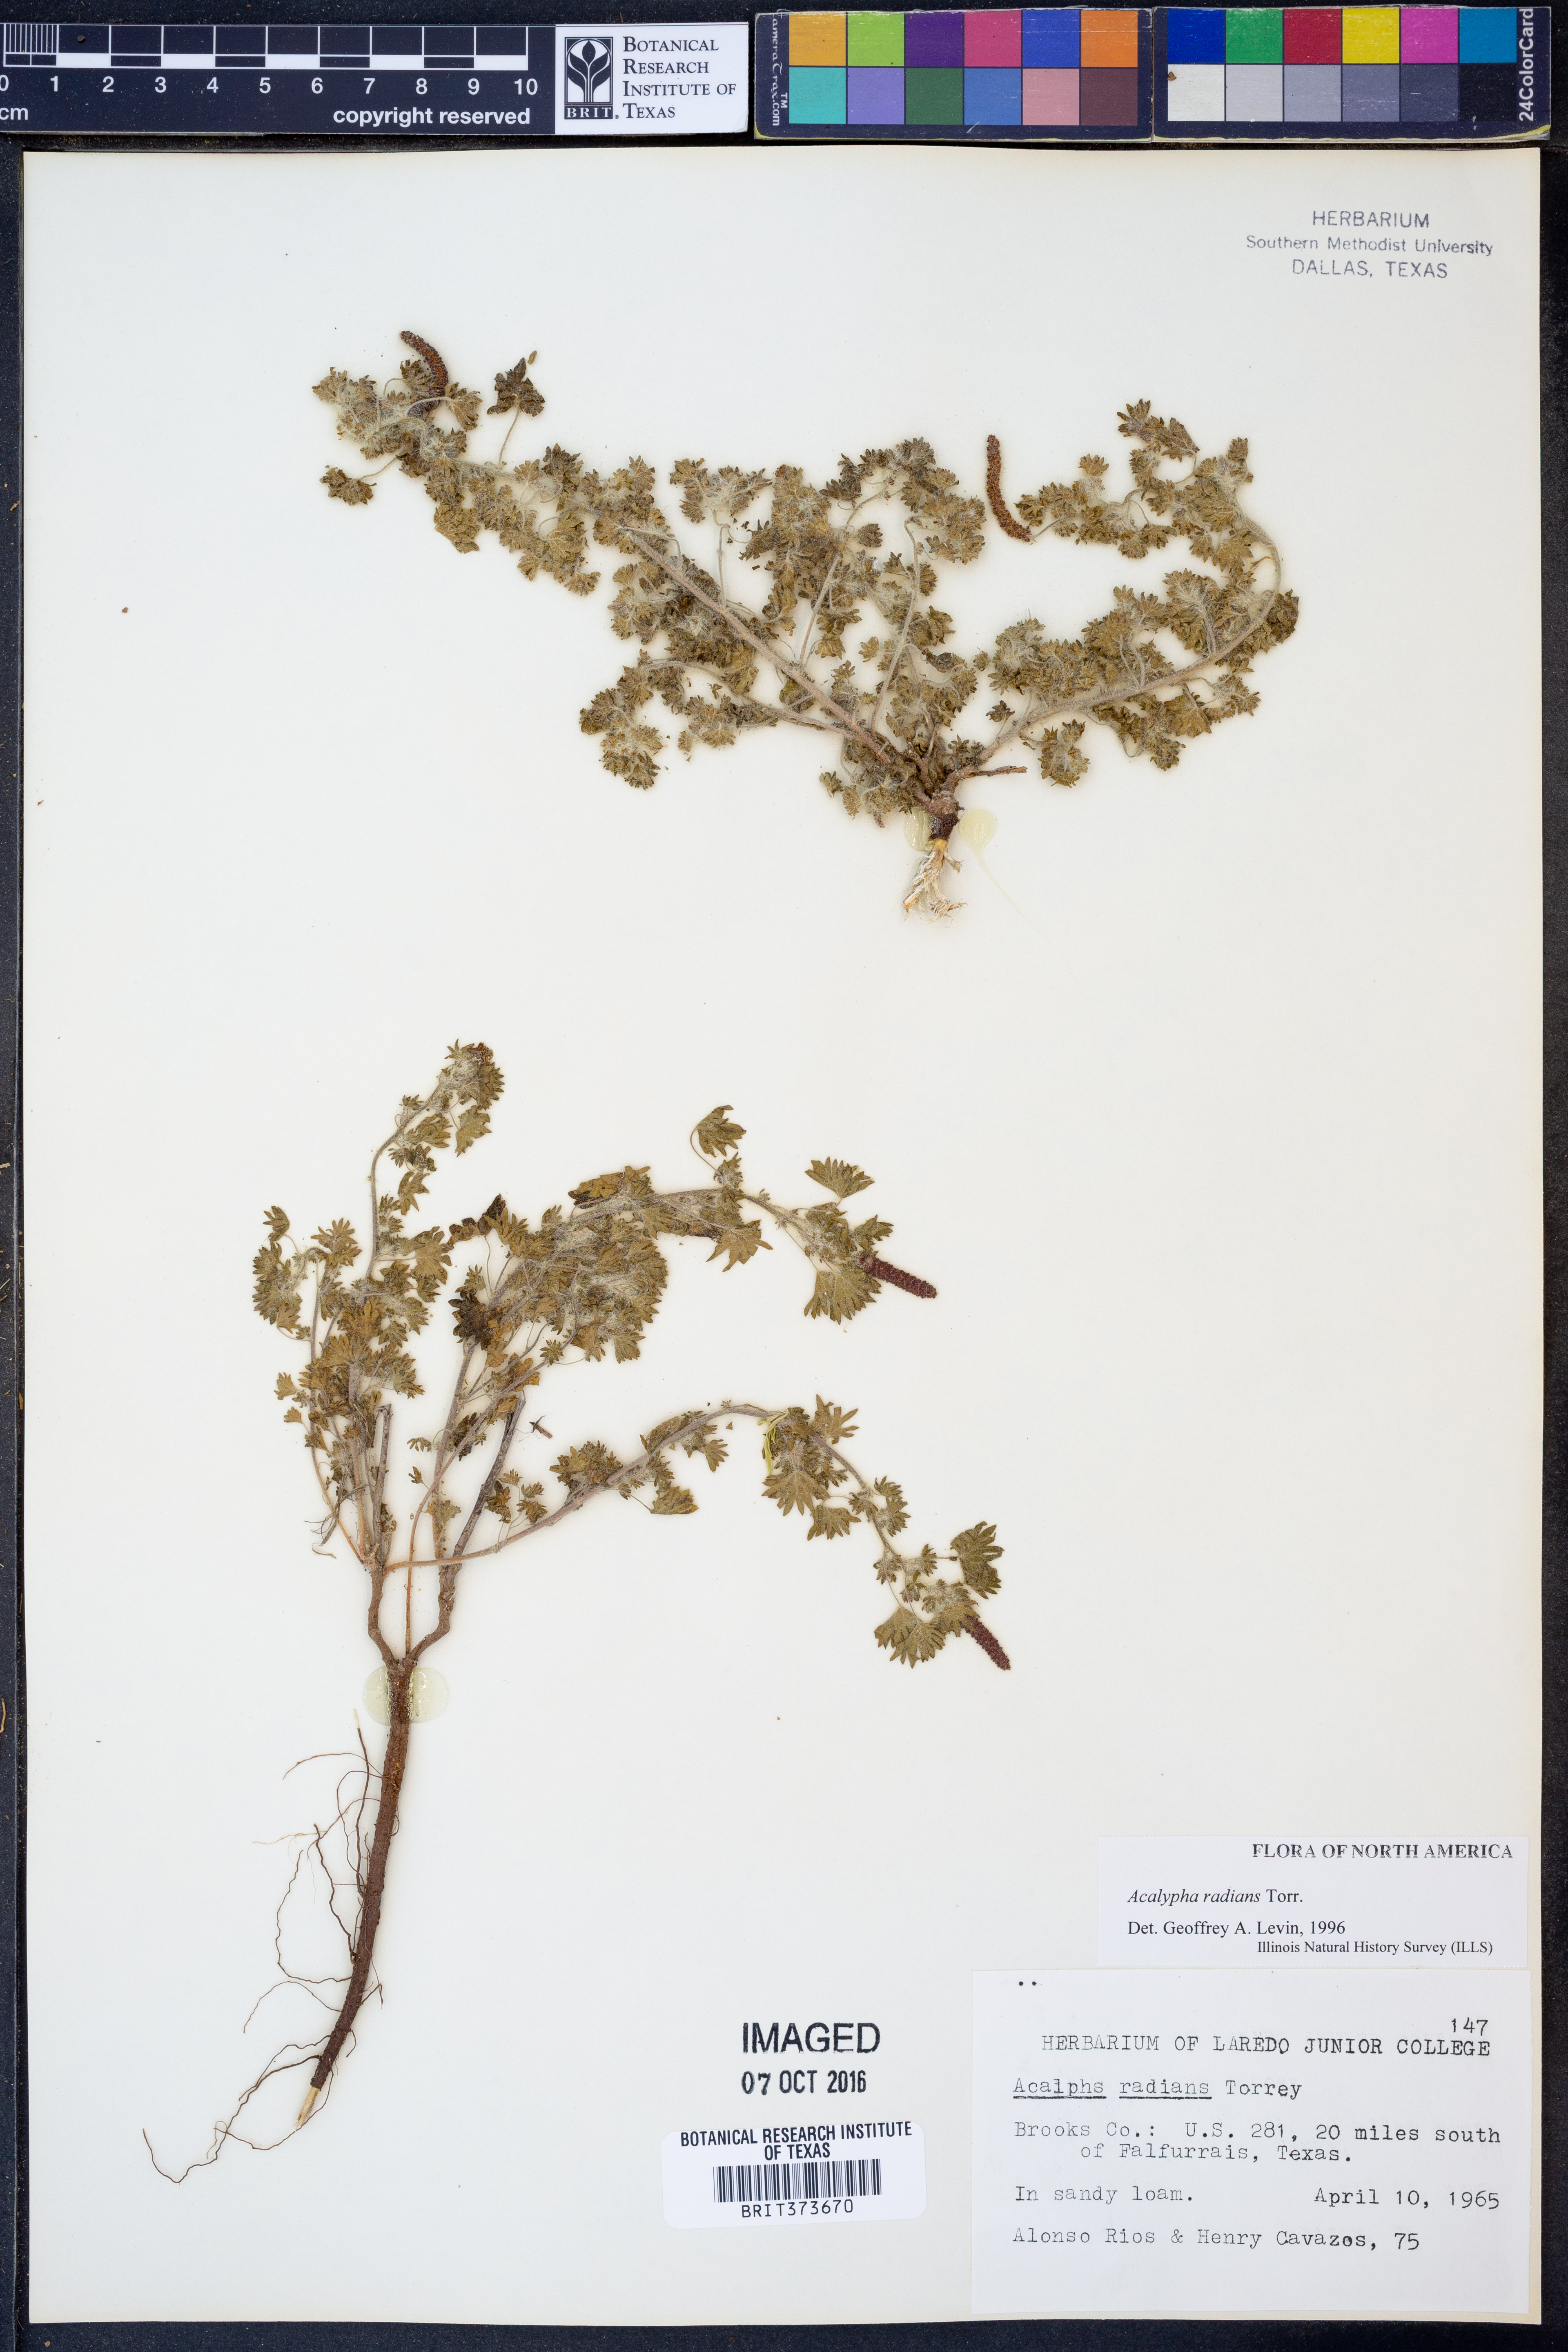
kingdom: Plantae
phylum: Tracheophyta
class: Magnoliopsida
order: Malpighiales
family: Euphorbiaceae
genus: Acalypha
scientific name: Acalypha radians
